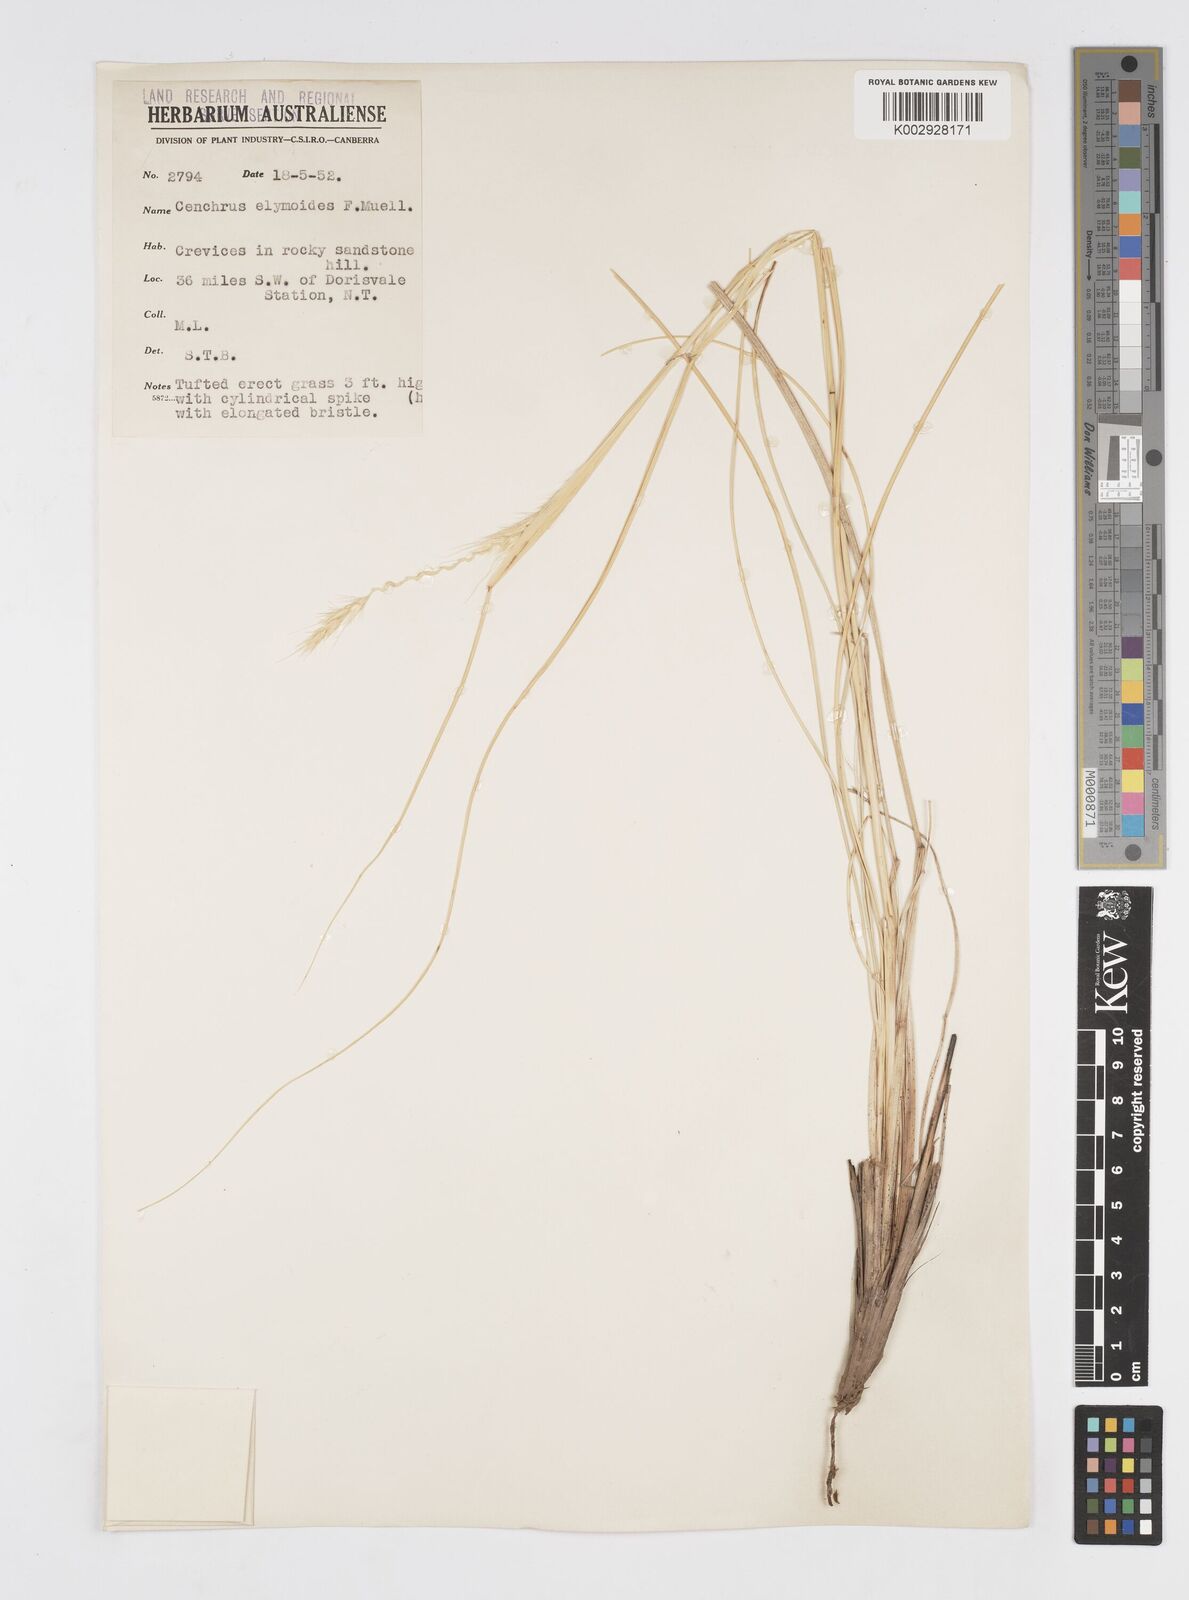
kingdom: Plantae
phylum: Tracheophyta
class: Liliopsida
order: Poales
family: Poaceae
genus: Cenchrus
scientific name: Cenchrus elymoides
